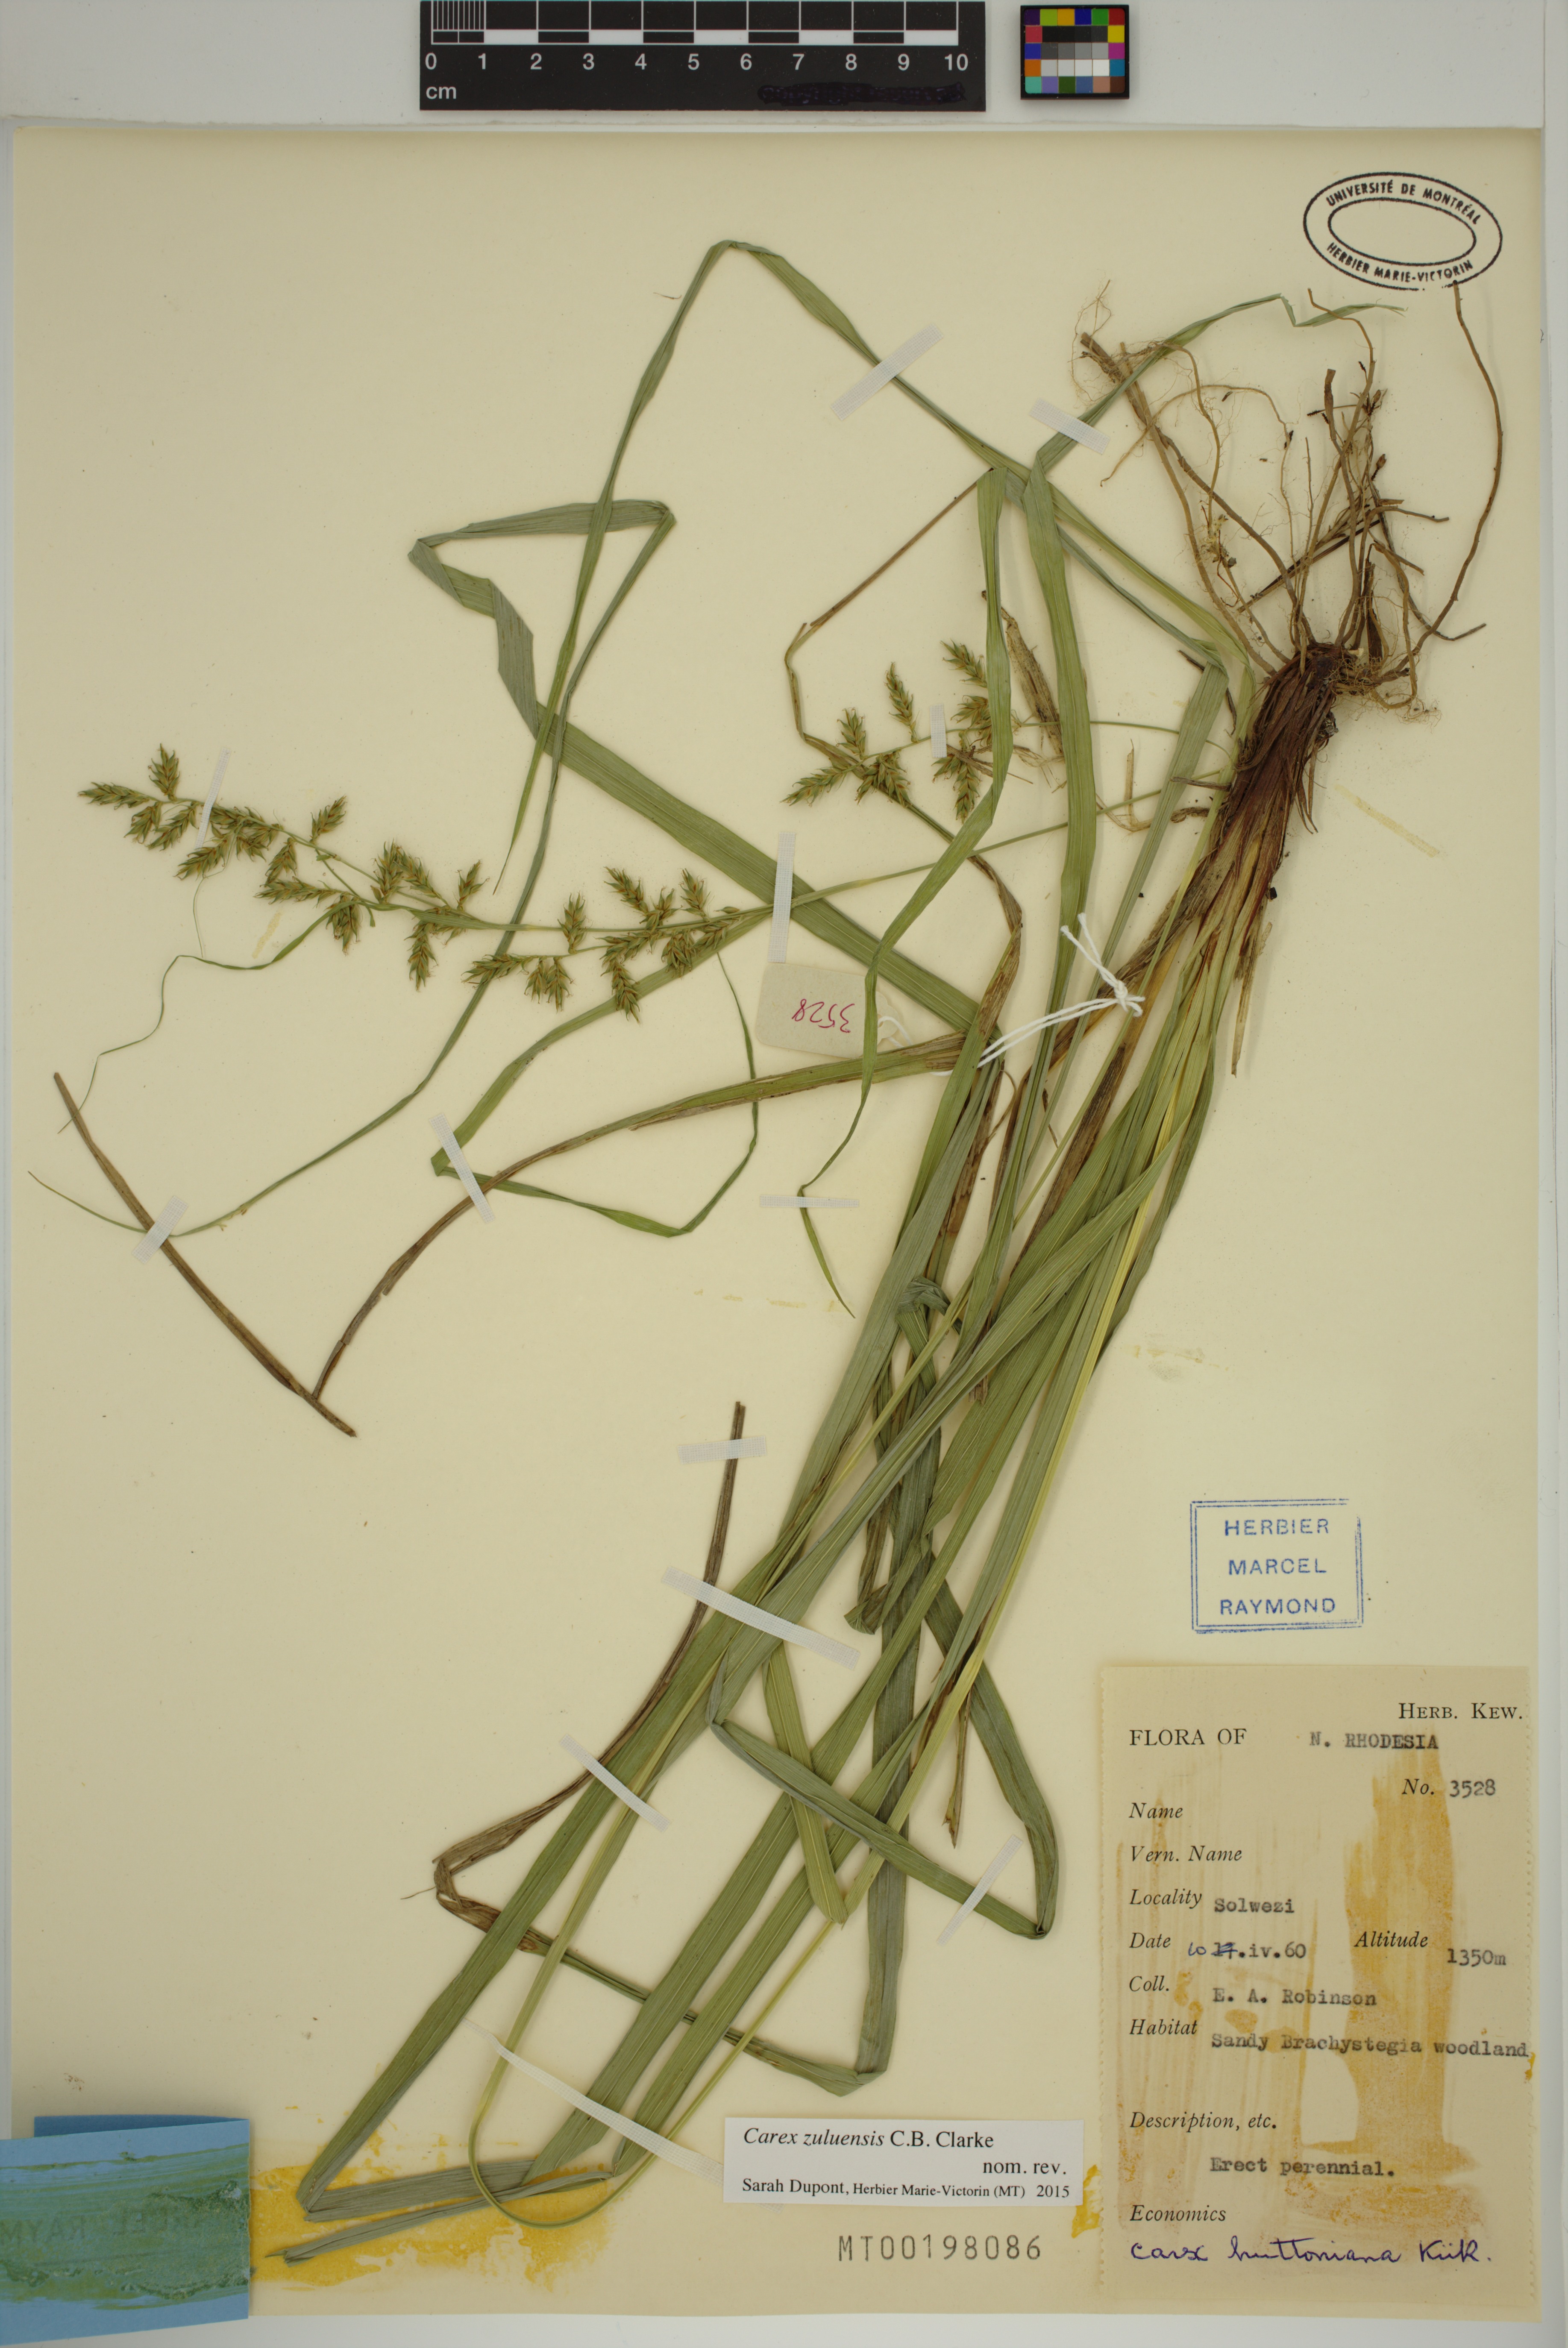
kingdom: Plantae
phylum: Tracheophyta
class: Liliopsida
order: Poales
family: Cyperaceae
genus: Carex
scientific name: Carex steudneri
